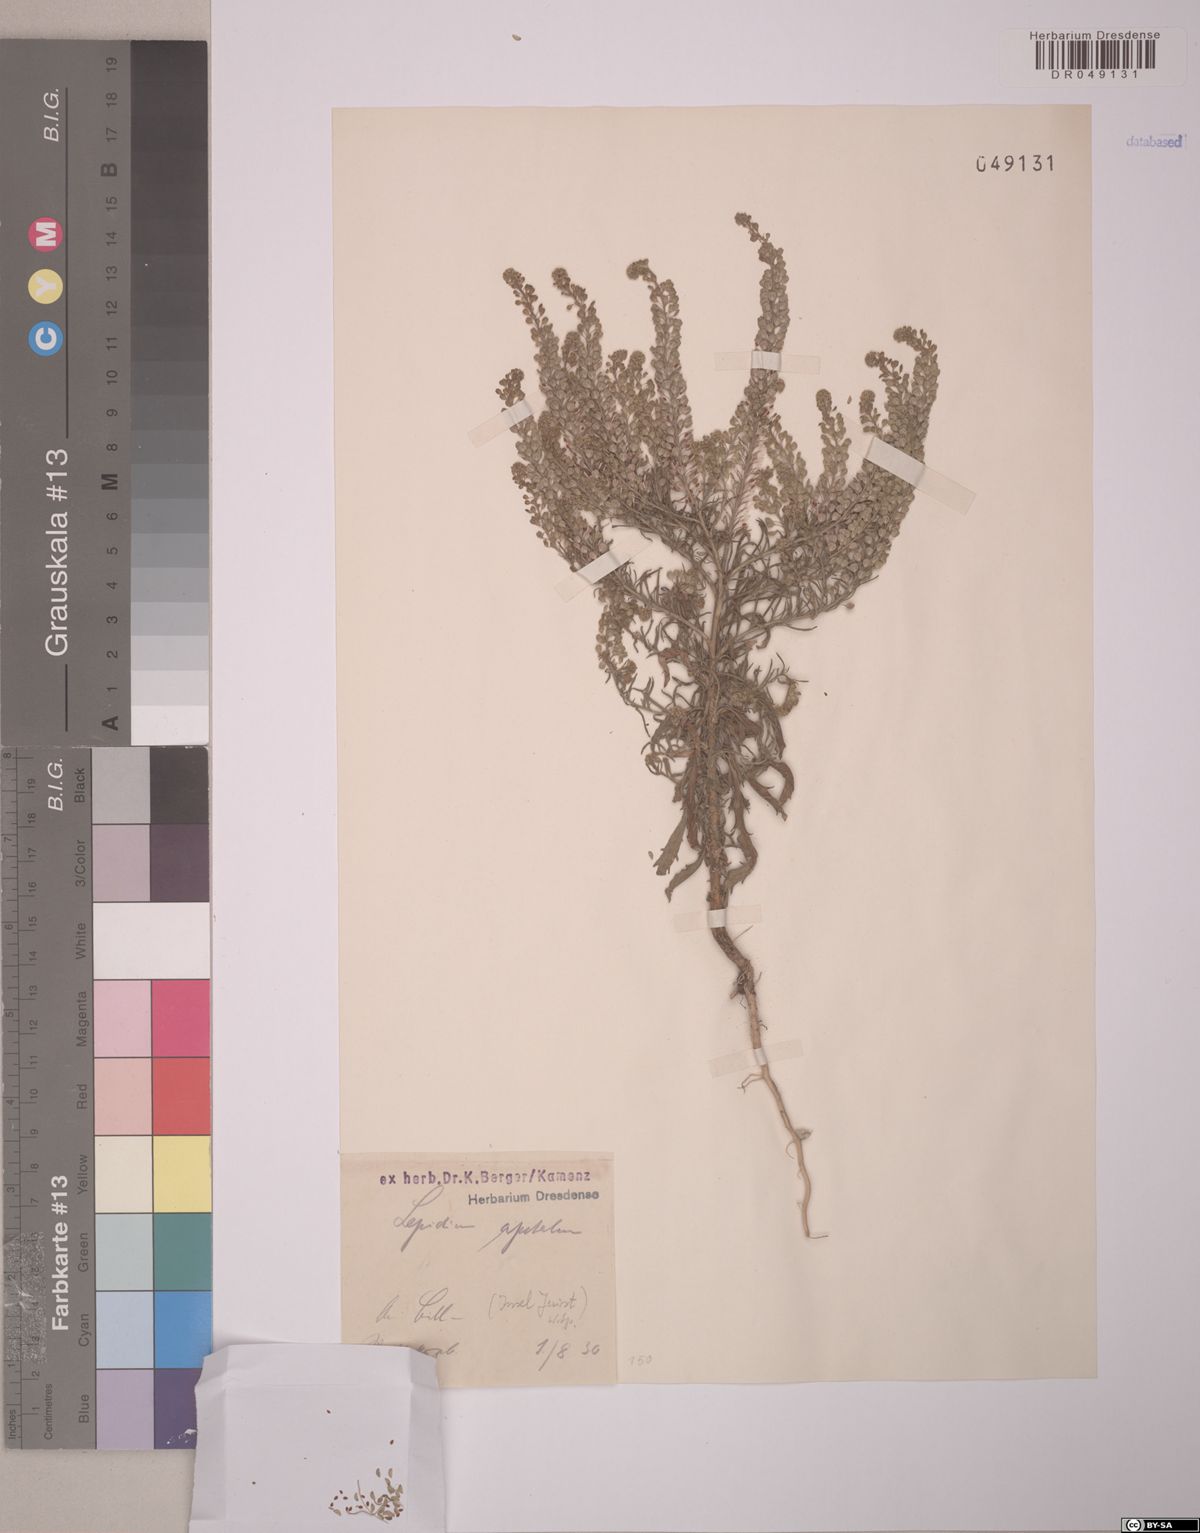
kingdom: Plantae
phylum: Tracheophyta
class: Magnoliopsida
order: Brassicales
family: Brassicaceae
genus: Lepidium
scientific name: Lepidium apetalum
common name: Pepperweed
